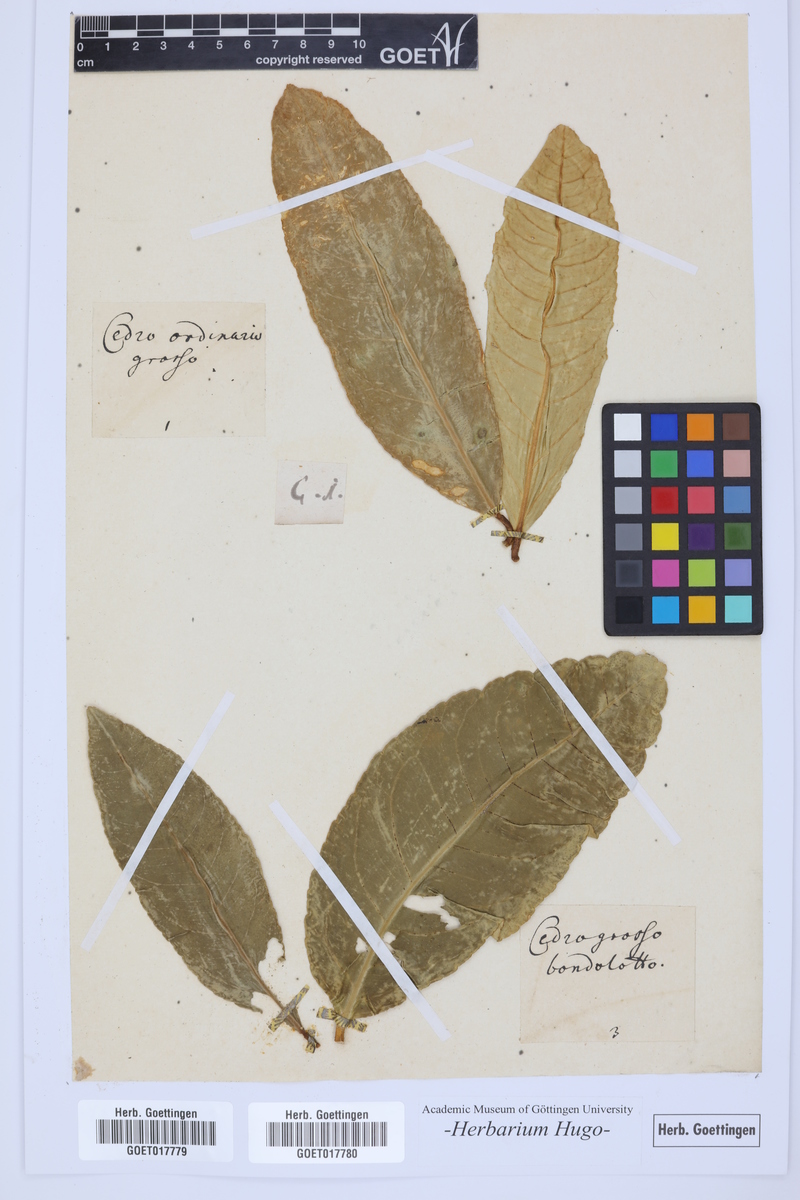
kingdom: Plantae
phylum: Tracheophyta
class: Magnoliopsida
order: Sapindales
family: Rutaceae
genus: Citrus
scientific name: Citrus
